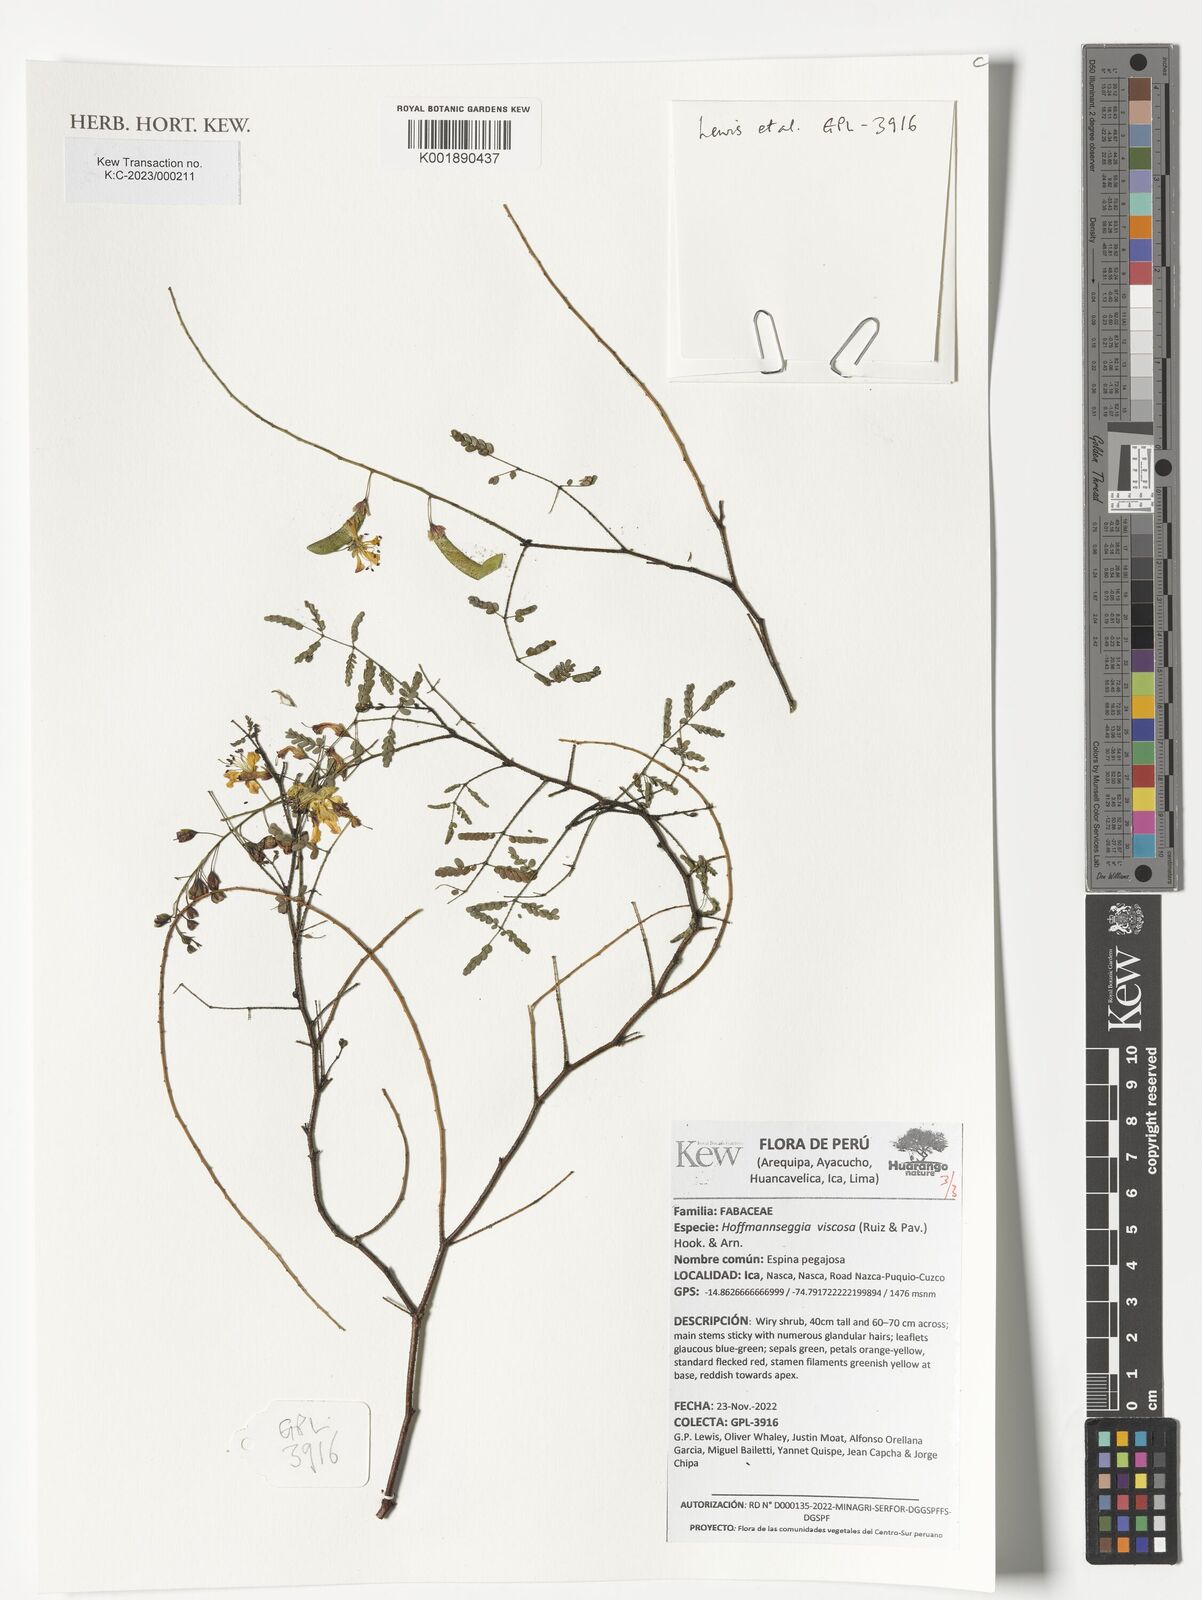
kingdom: Plantae
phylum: Tracheophyta
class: Magnoliopsida
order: Fabales
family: Fabaceae
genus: Hoffmannseggia
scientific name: Hoffmannseggia viscosa
